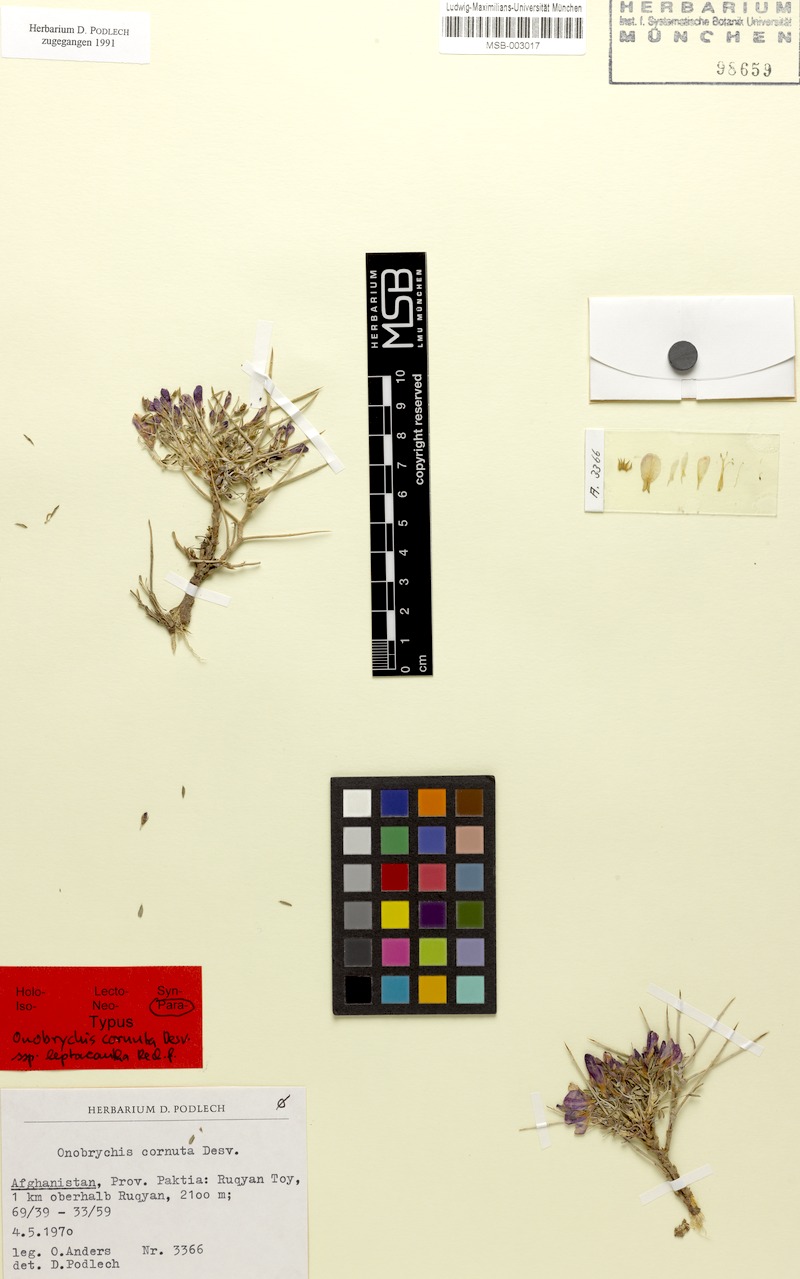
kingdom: Plantae
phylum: Tracheophyta
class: Magnoliopsida
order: Fabales
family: Fabaceae
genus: Onobrychis
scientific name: Onobrychis cornuta
